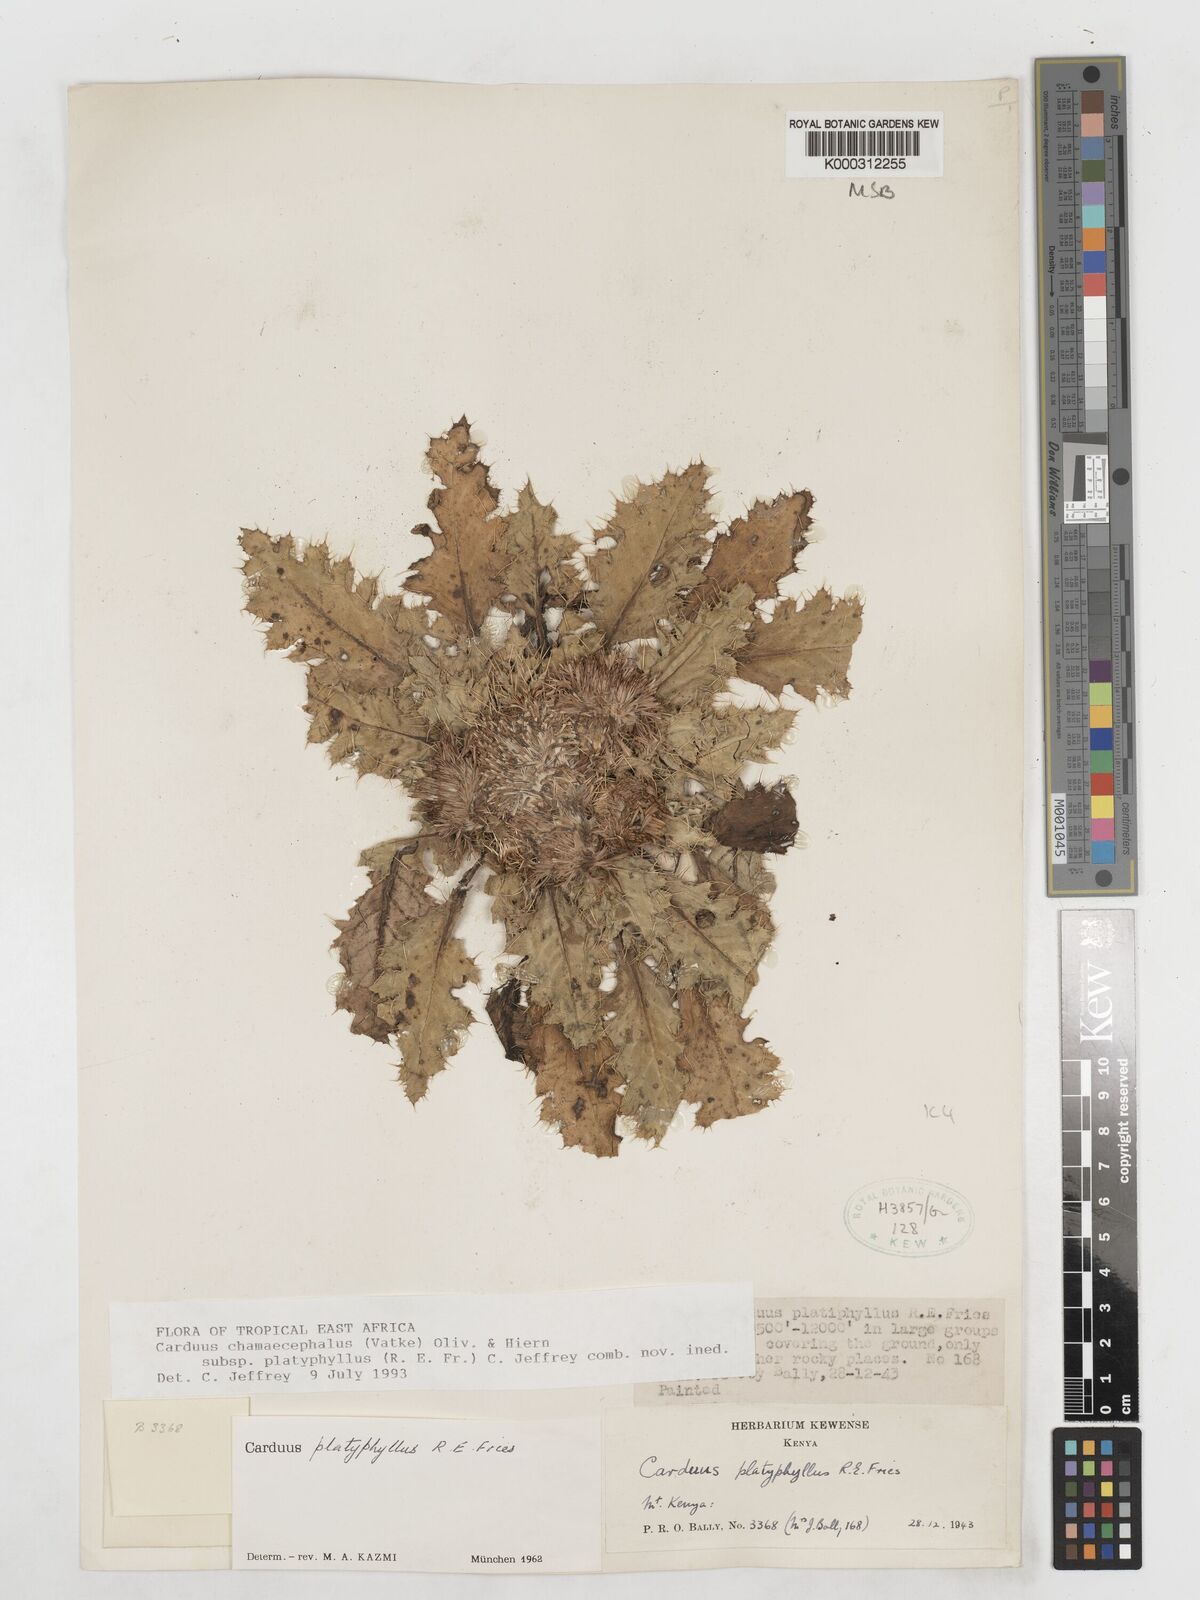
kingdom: Plantae
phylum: Tracheophyta
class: Magnoliopsida
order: Asterales
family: Asteraceae
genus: Carduus
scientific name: Carduus schimperi
